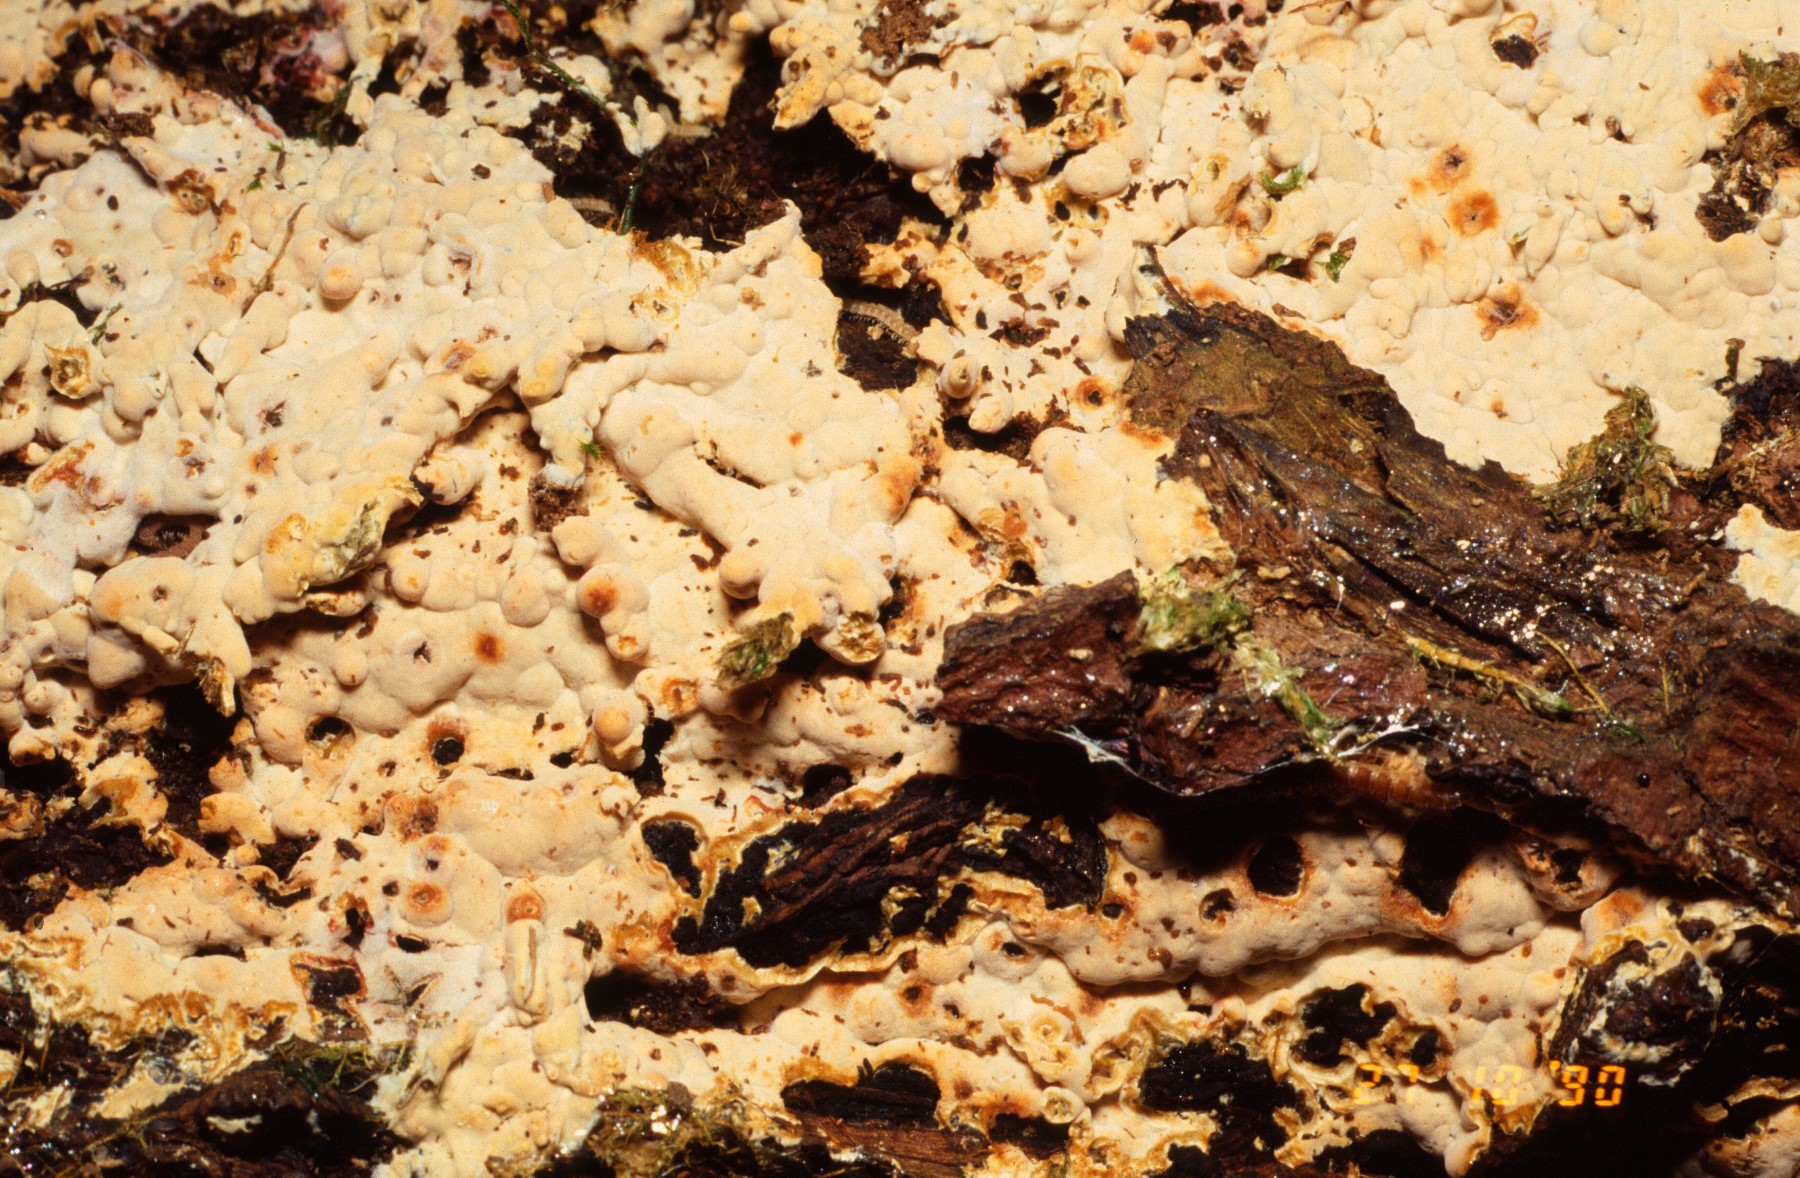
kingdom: Fungi
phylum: Basidiomycota
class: Agaricomycetes
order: Russulales
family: Stereaceae
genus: Stereum
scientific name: Stereum rugosum
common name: rynket lædersvamp
